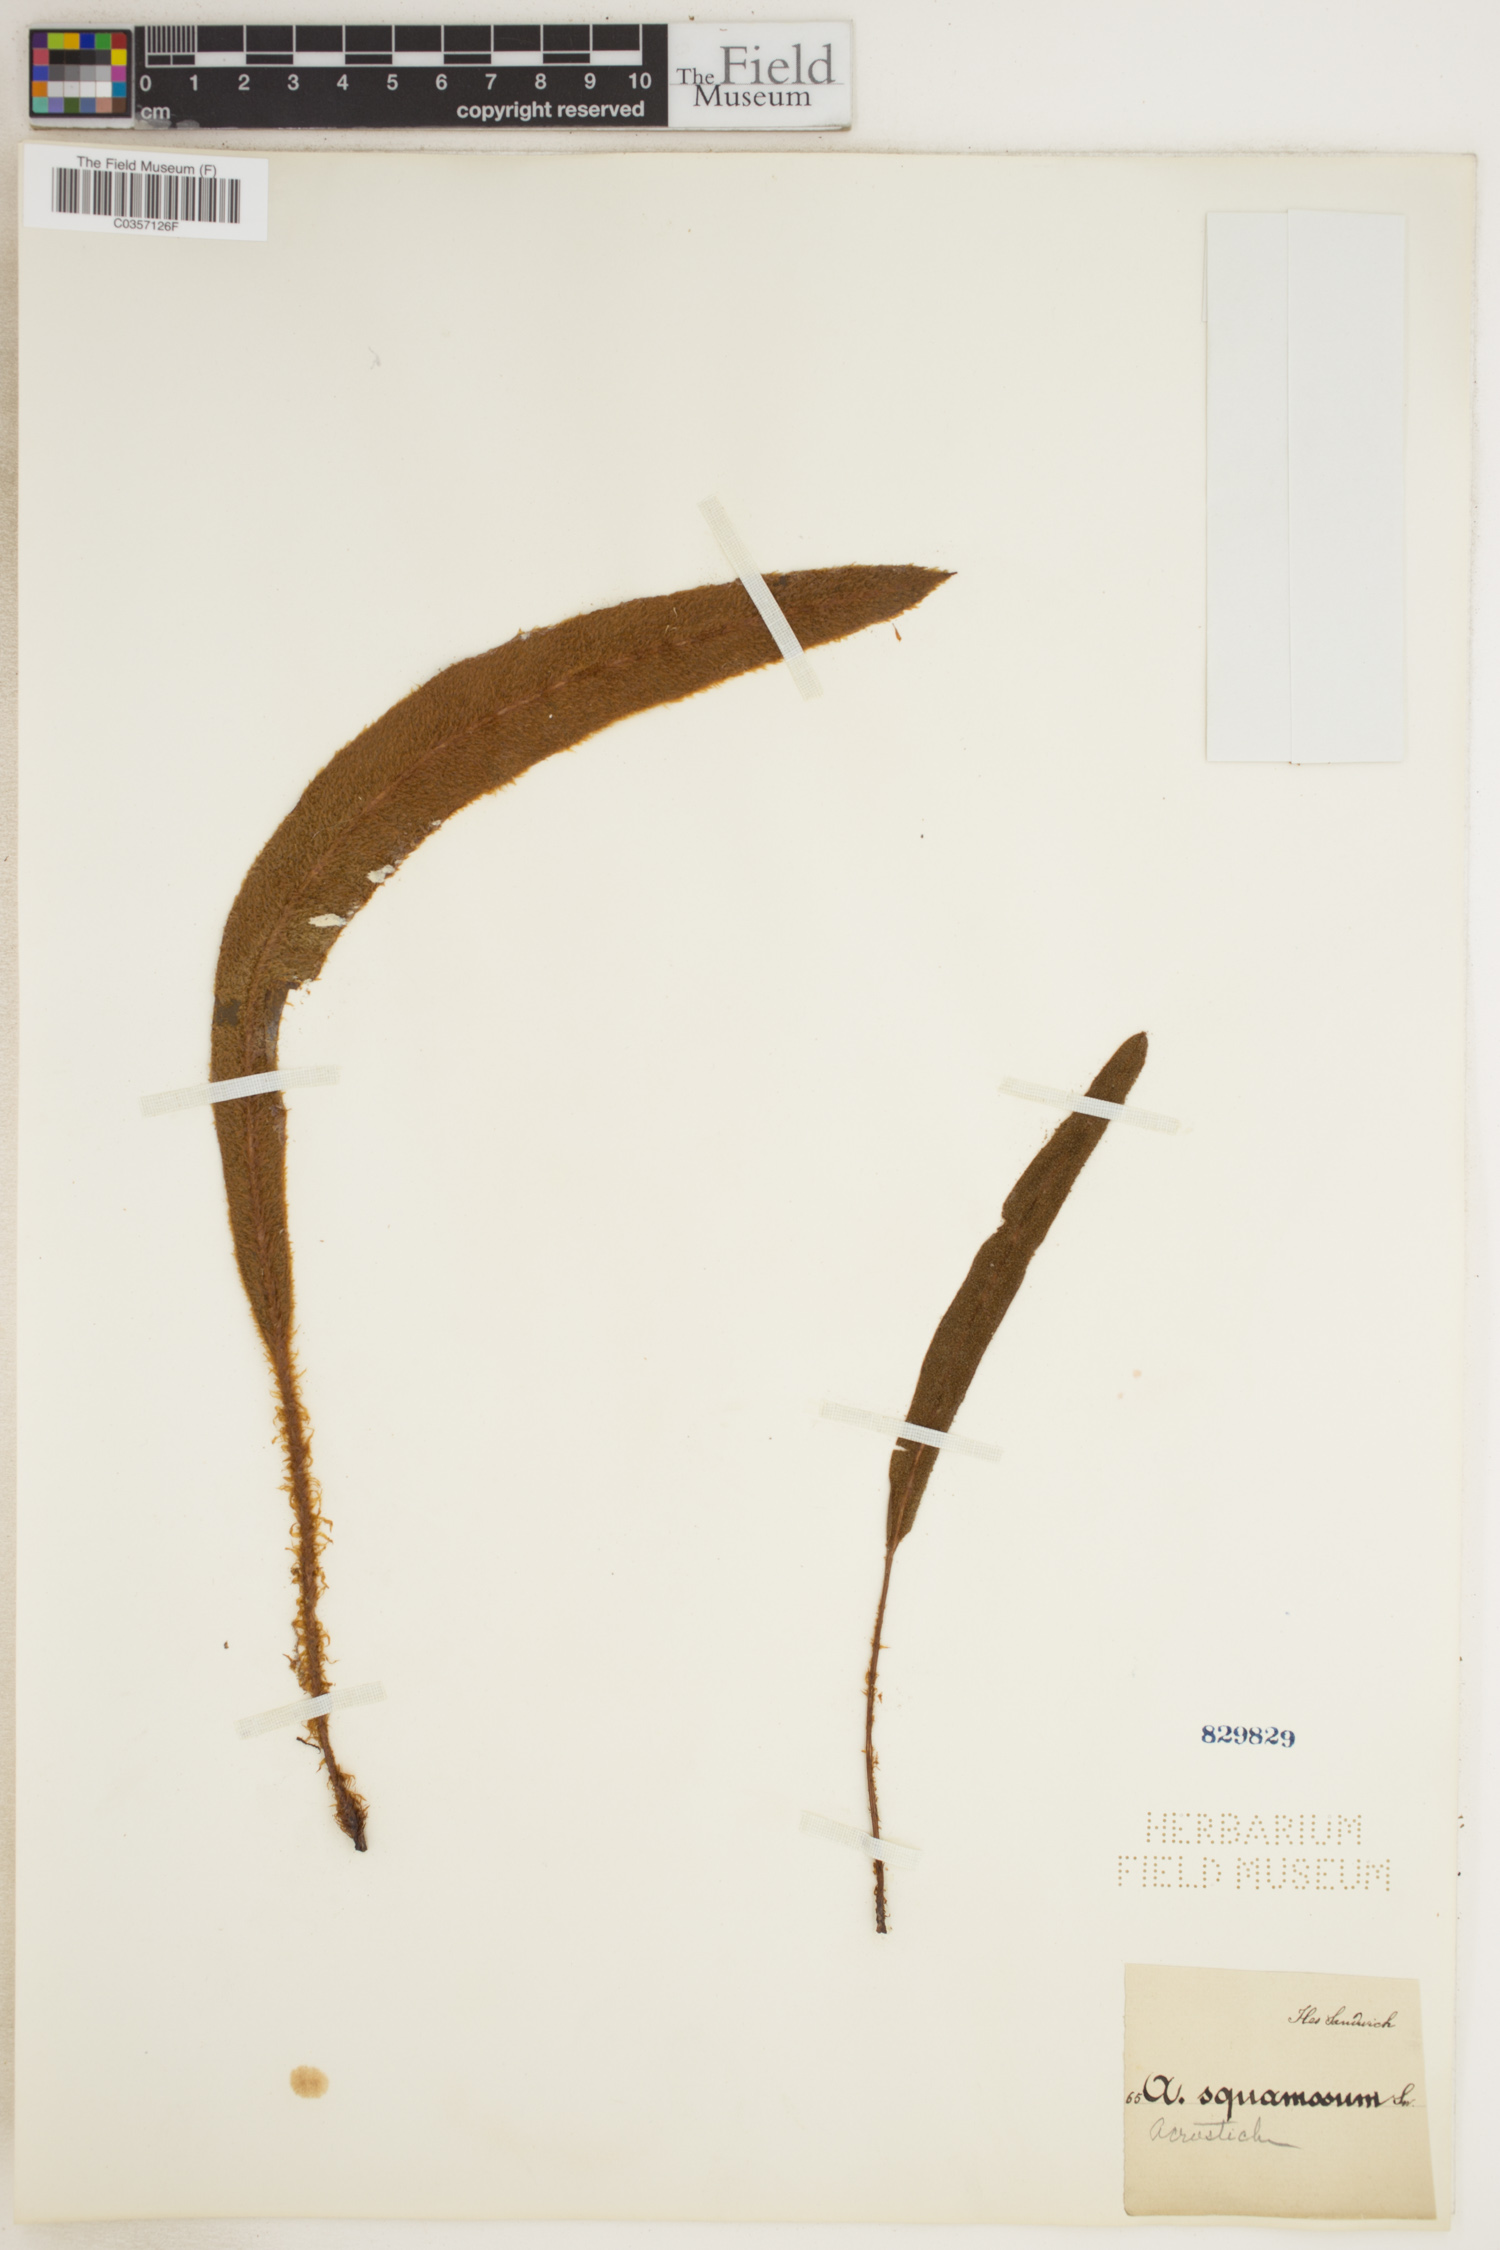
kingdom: Plantae
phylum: Tracheophyta
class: Polypodiopsida
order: Polypodiales
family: Dryopteridaceae
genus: Elaphoglossum
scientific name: Elaphoglossum lindenii
